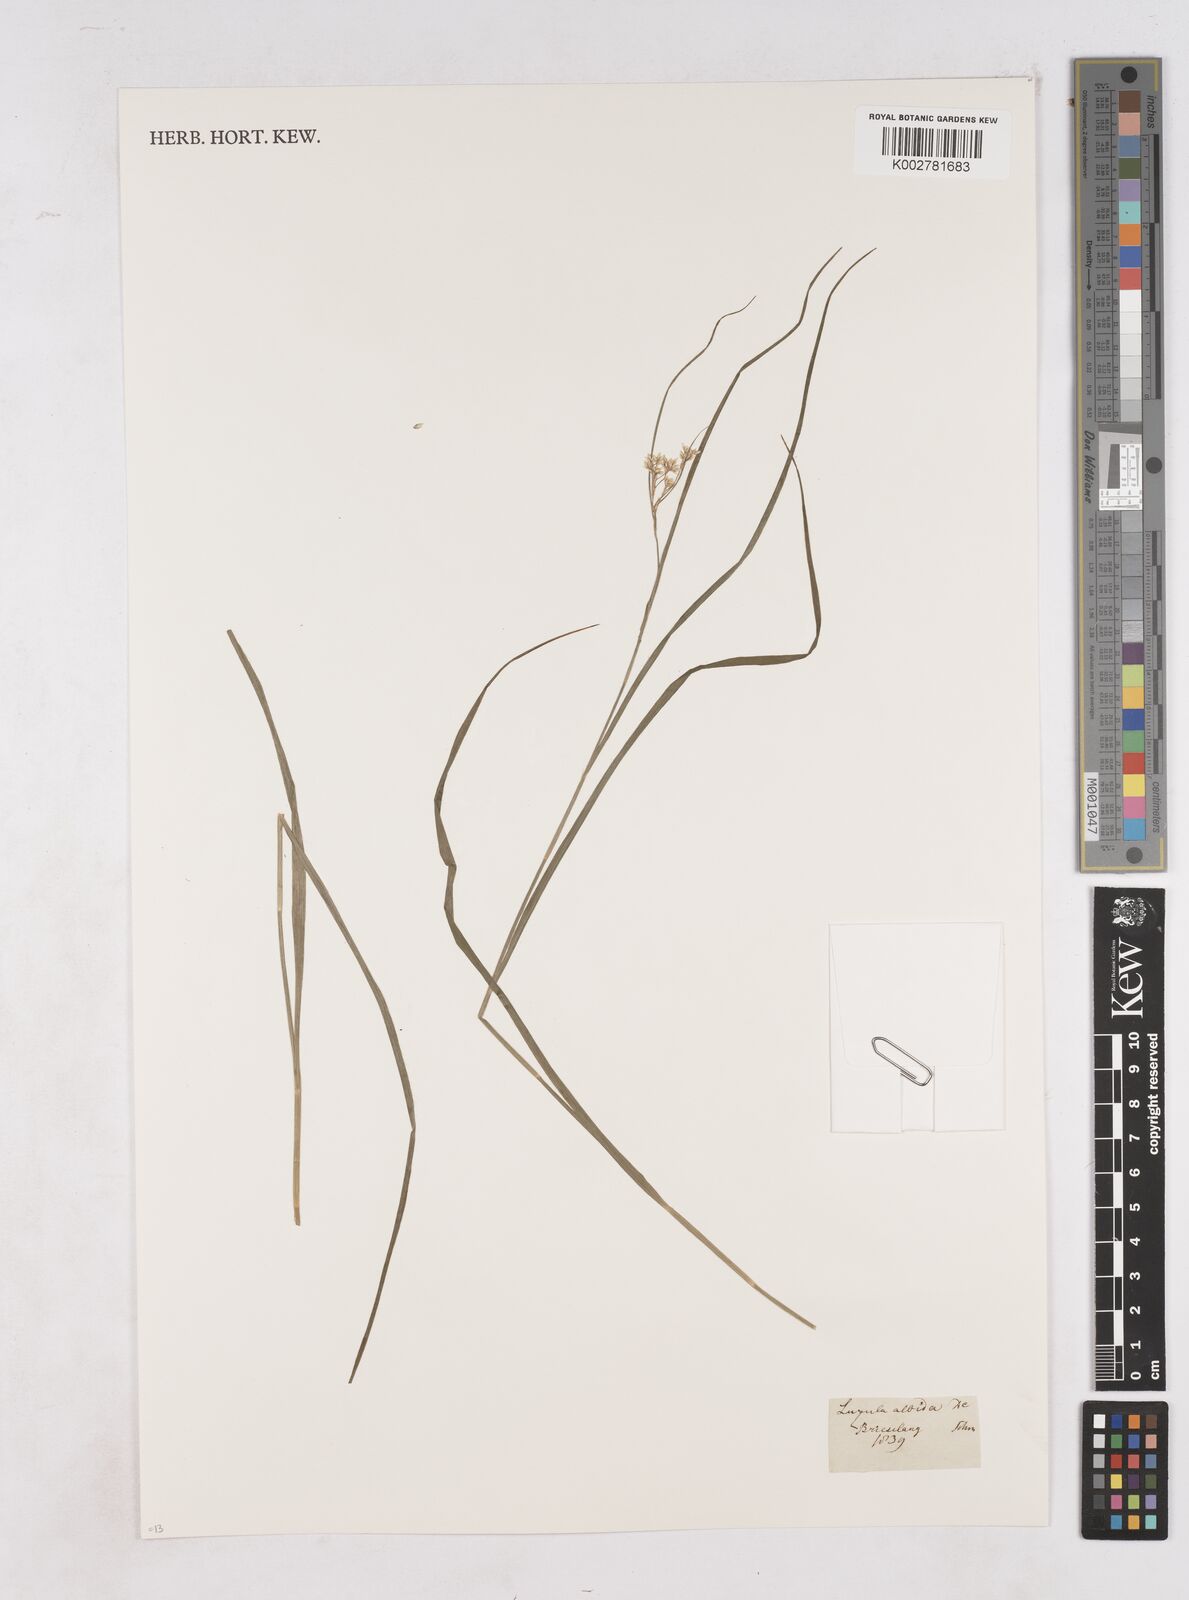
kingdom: Plantae
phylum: Tracheophyta
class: Liliopsida
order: Poales
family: Juncaceae
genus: Luzula
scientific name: Luzula luzuloides
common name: White wood-rush
